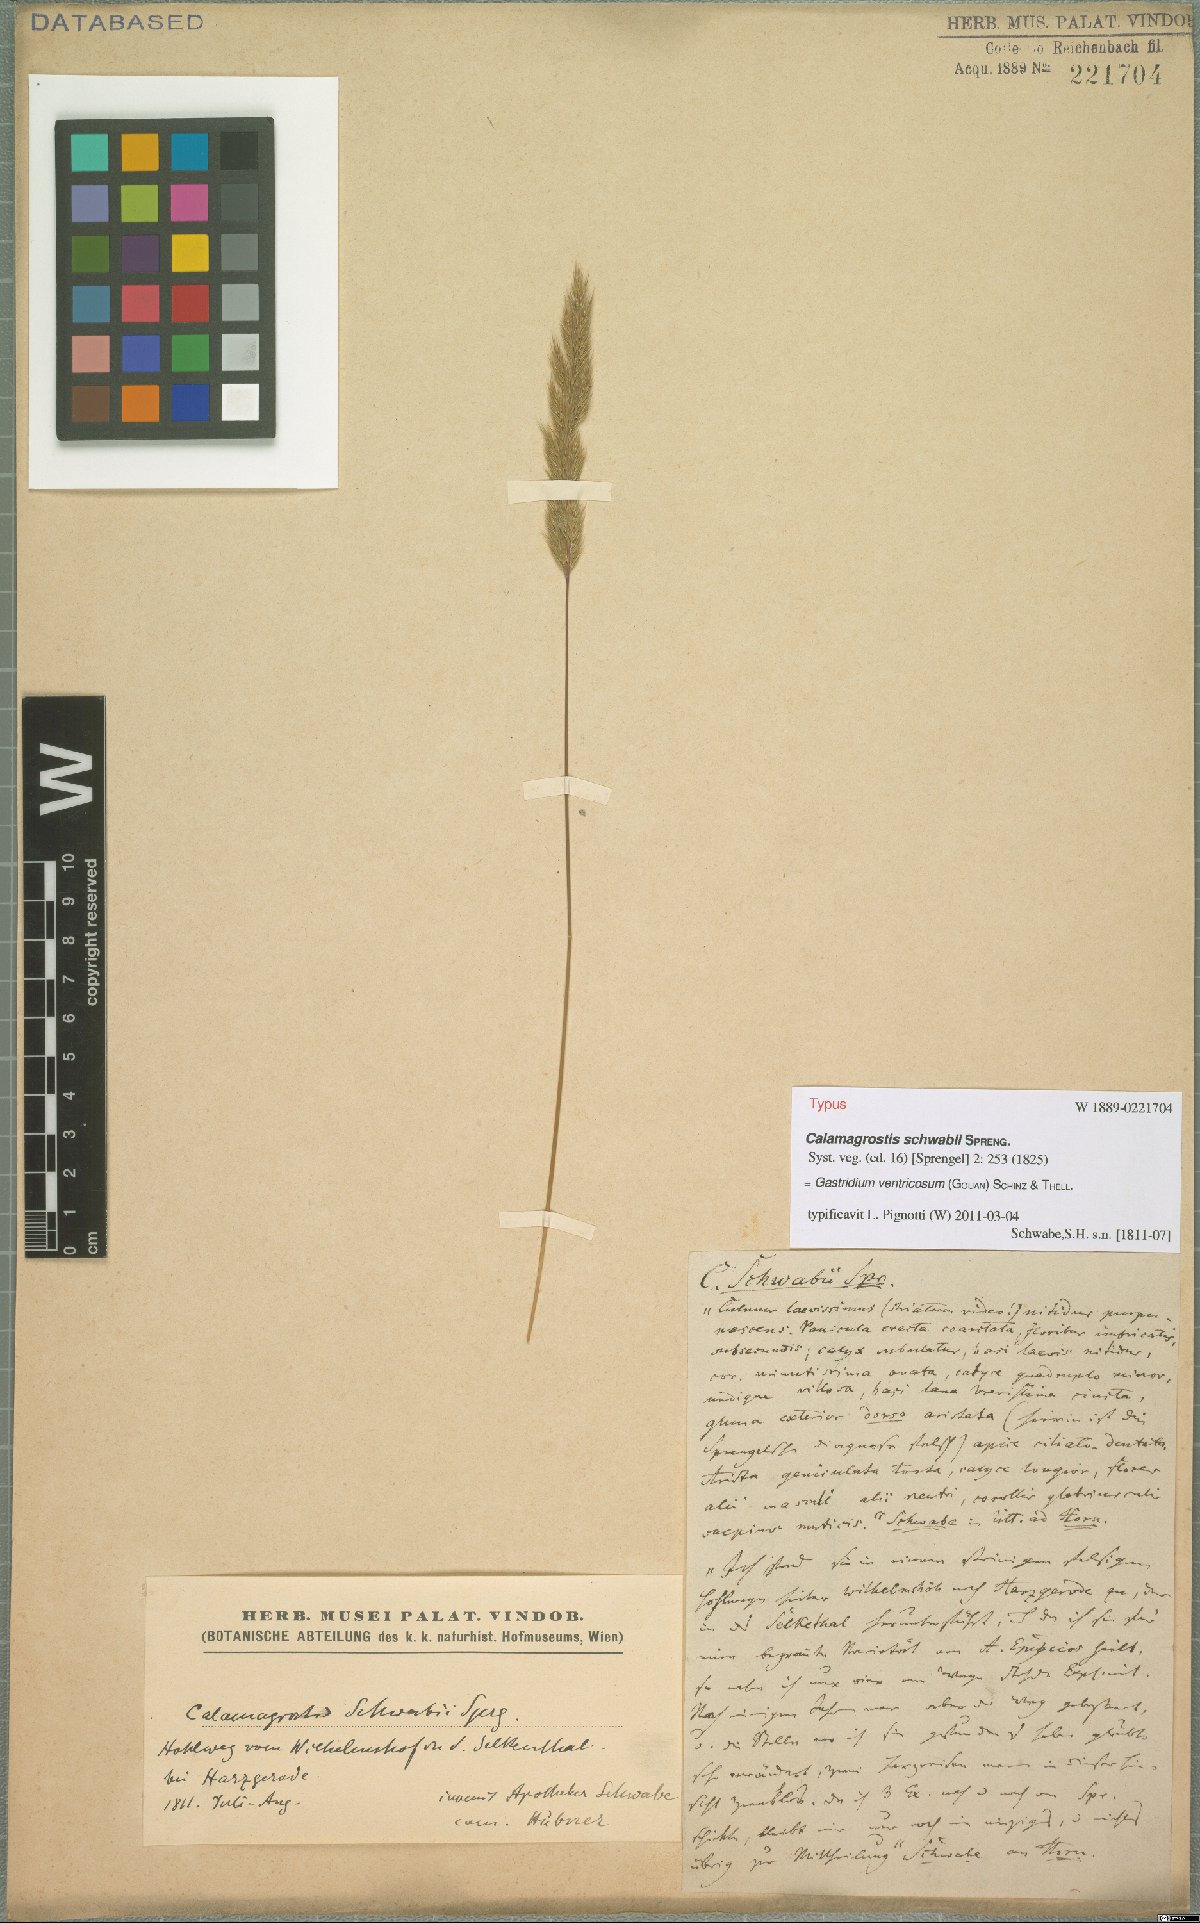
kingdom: Plantae
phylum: Tracheophyta
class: Liliopsida
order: Poales
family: Poaceae
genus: Gastridium
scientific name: Gastridium ventricosum
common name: Nit-grass
